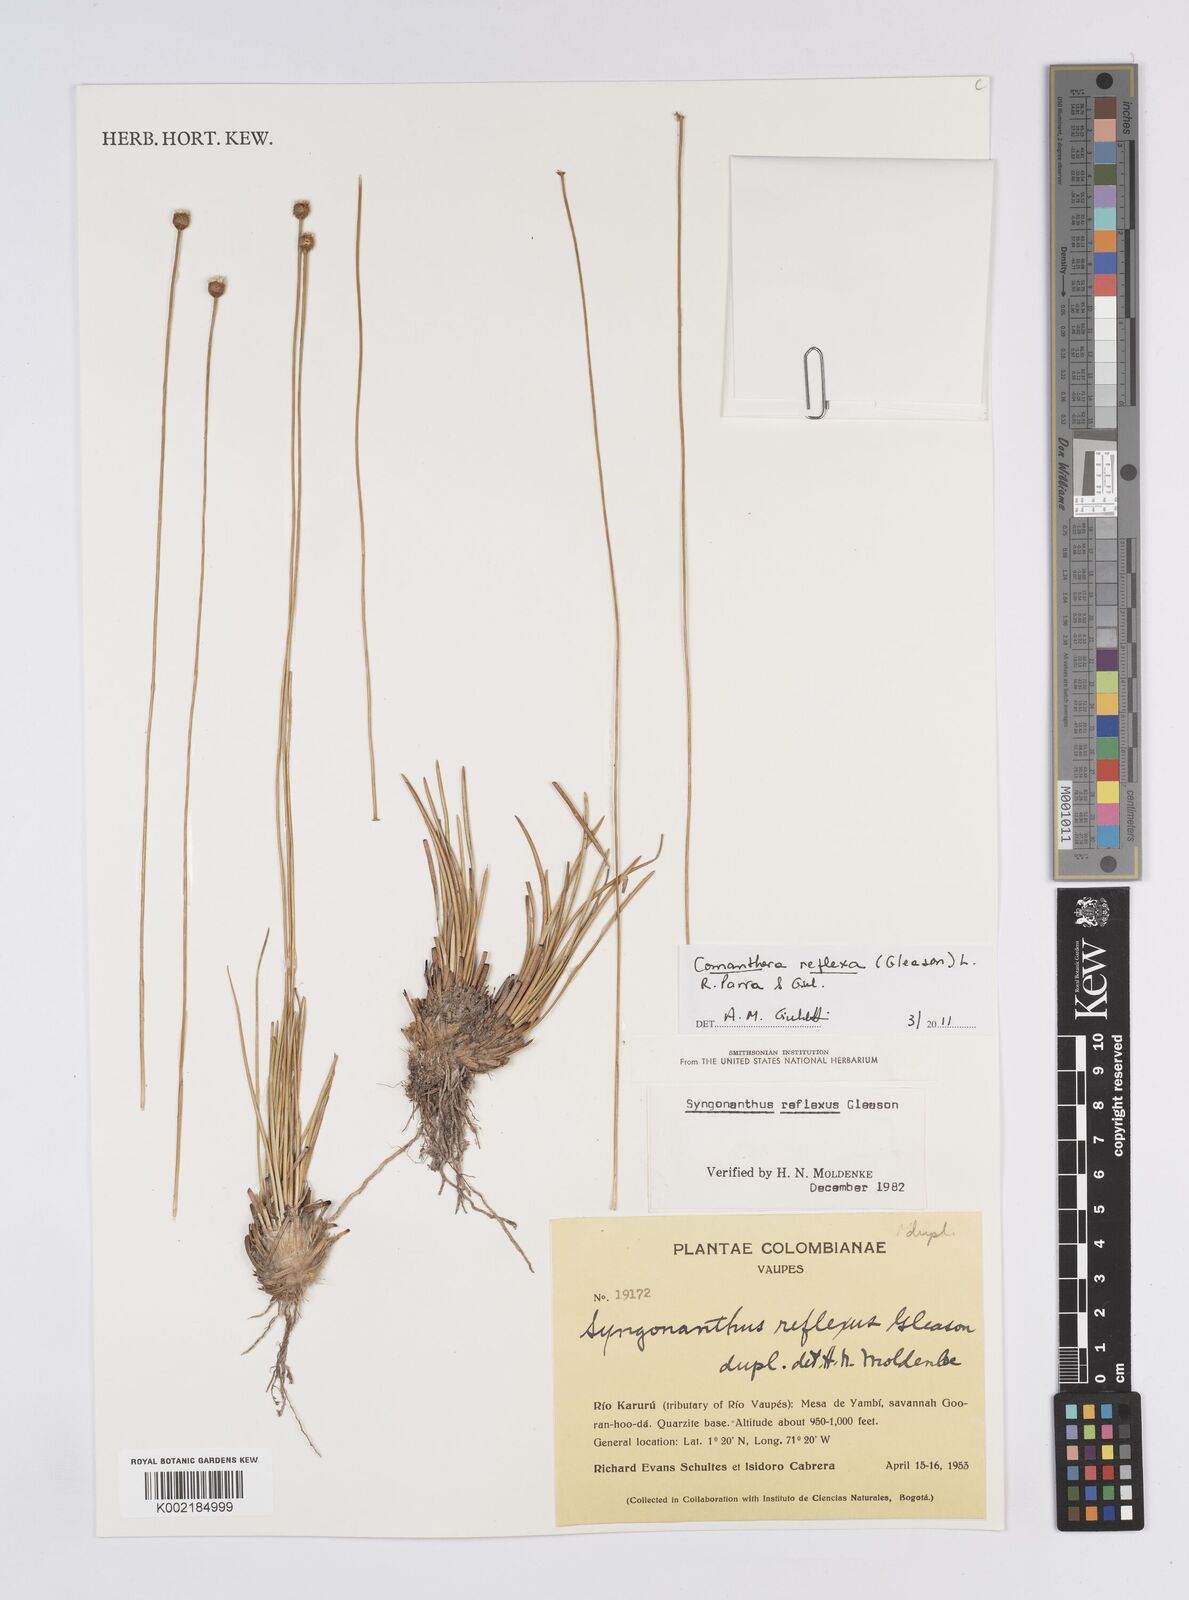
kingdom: Plantae
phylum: Tracheophyta
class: Liliopsida
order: Poales
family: Eriocaulaceae
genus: Comanthera
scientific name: Comanthera reflexa
